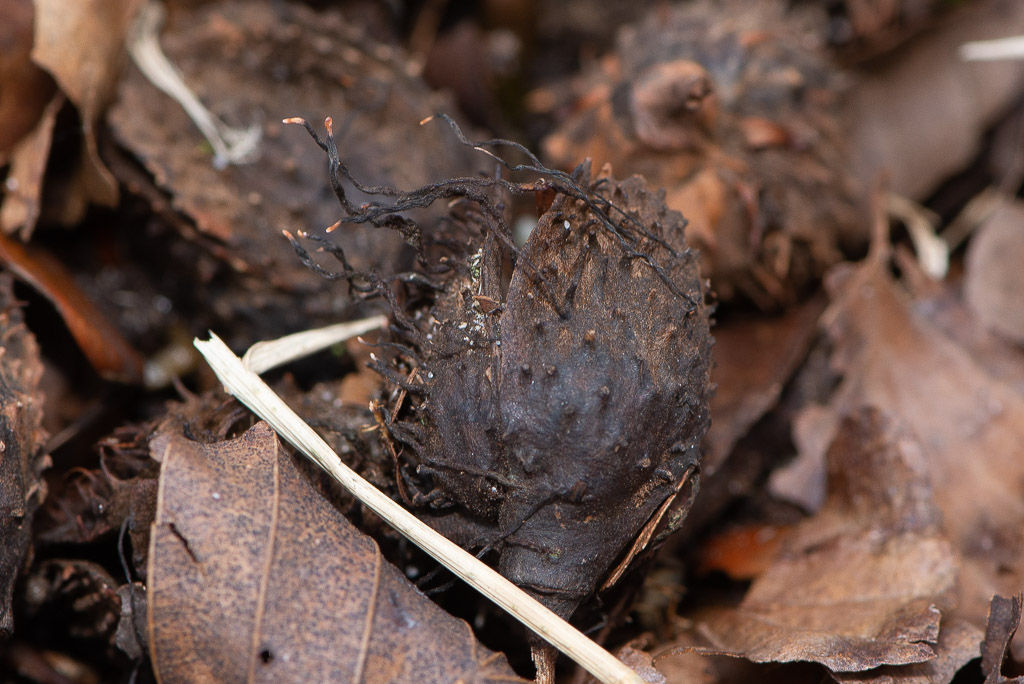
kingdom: Fungi
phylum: Ascomycota
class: Sordariomycetes
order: Xylariales
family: Xylariaceae
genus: Xylaria
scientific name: Xylaria carpophila
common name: bogskål-stødsvamp
